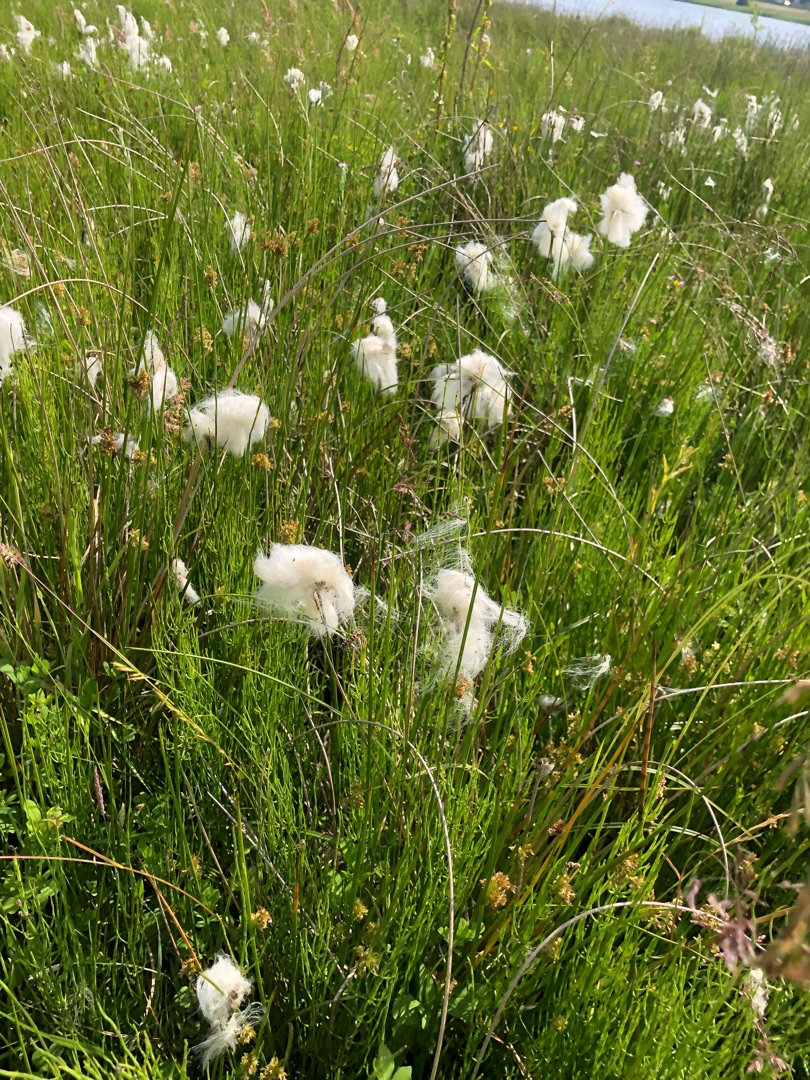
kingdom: Plantae
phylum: Tracheophyta
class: Liliopsida
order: Poales
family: Cyperaceae
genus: Eriophorum
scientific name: Eriophorum angustifolium
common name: Smalbladet kæruld
